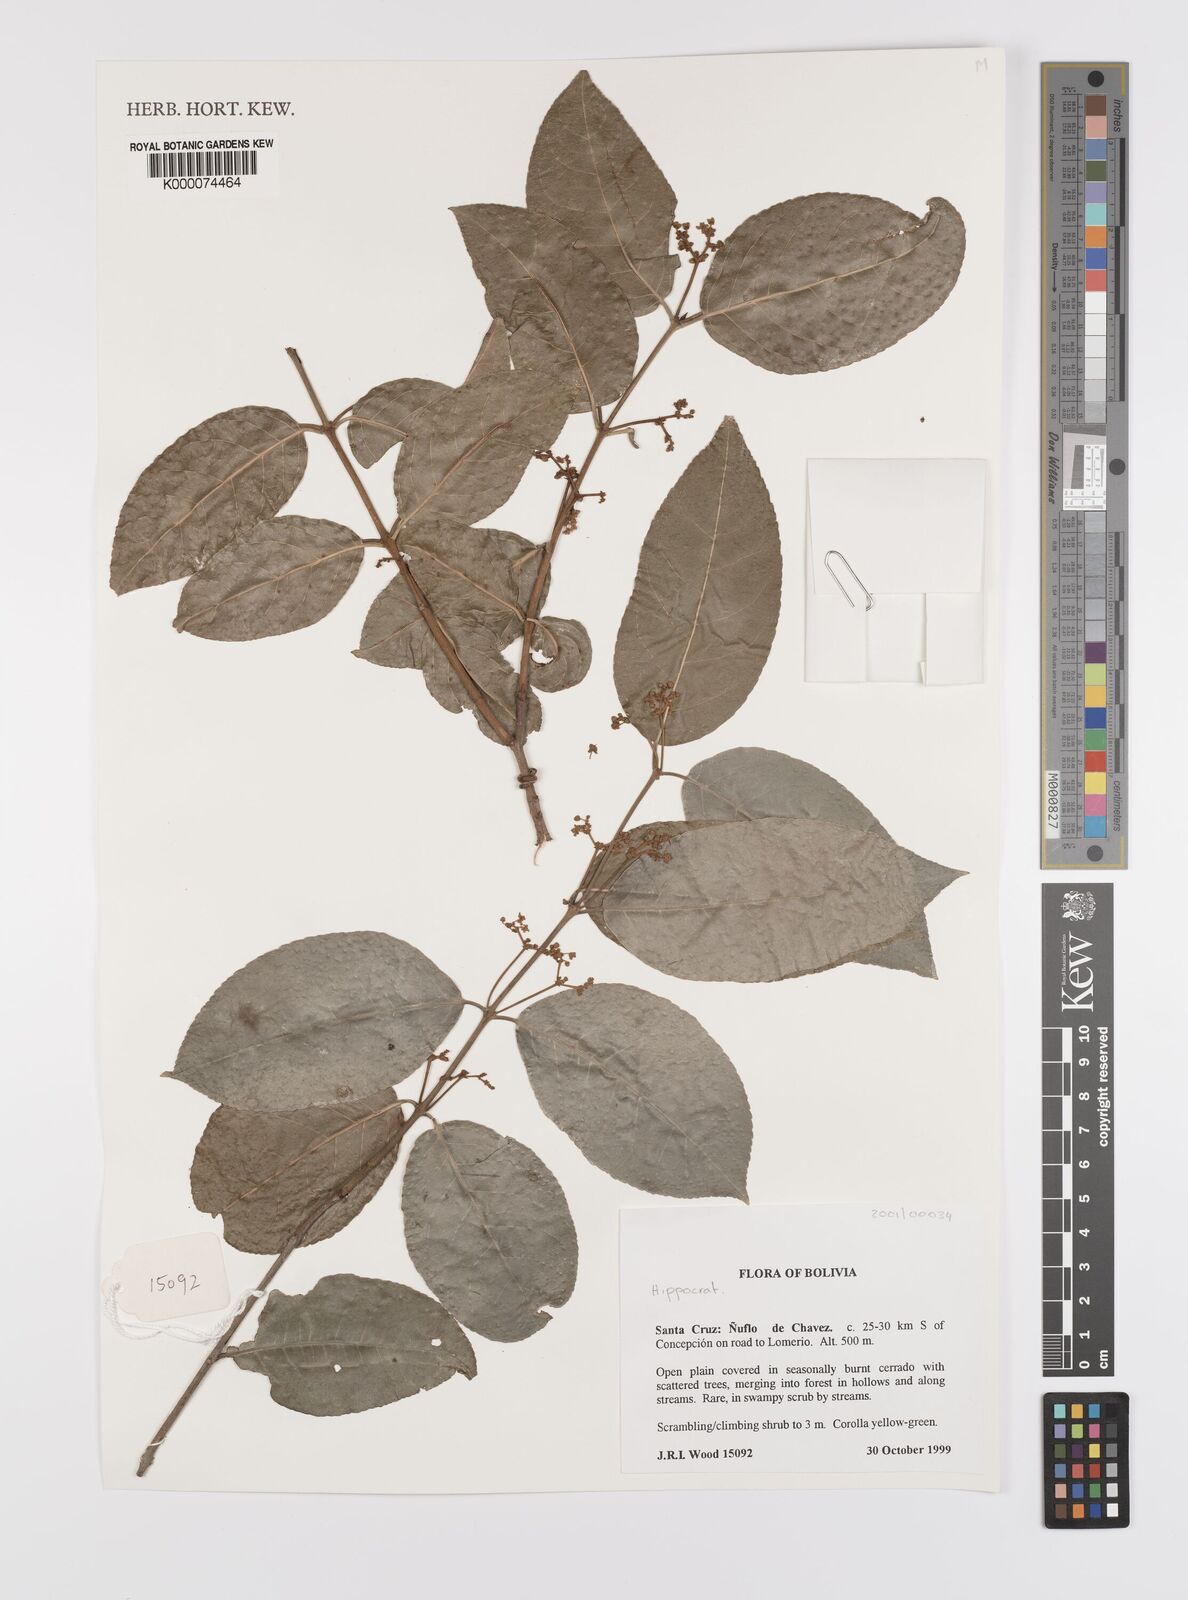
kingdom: Plantae
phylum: Tracheophyta
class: Magnoliopsida
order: Celastrales
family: Celastraceae
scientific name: Celastraceae
